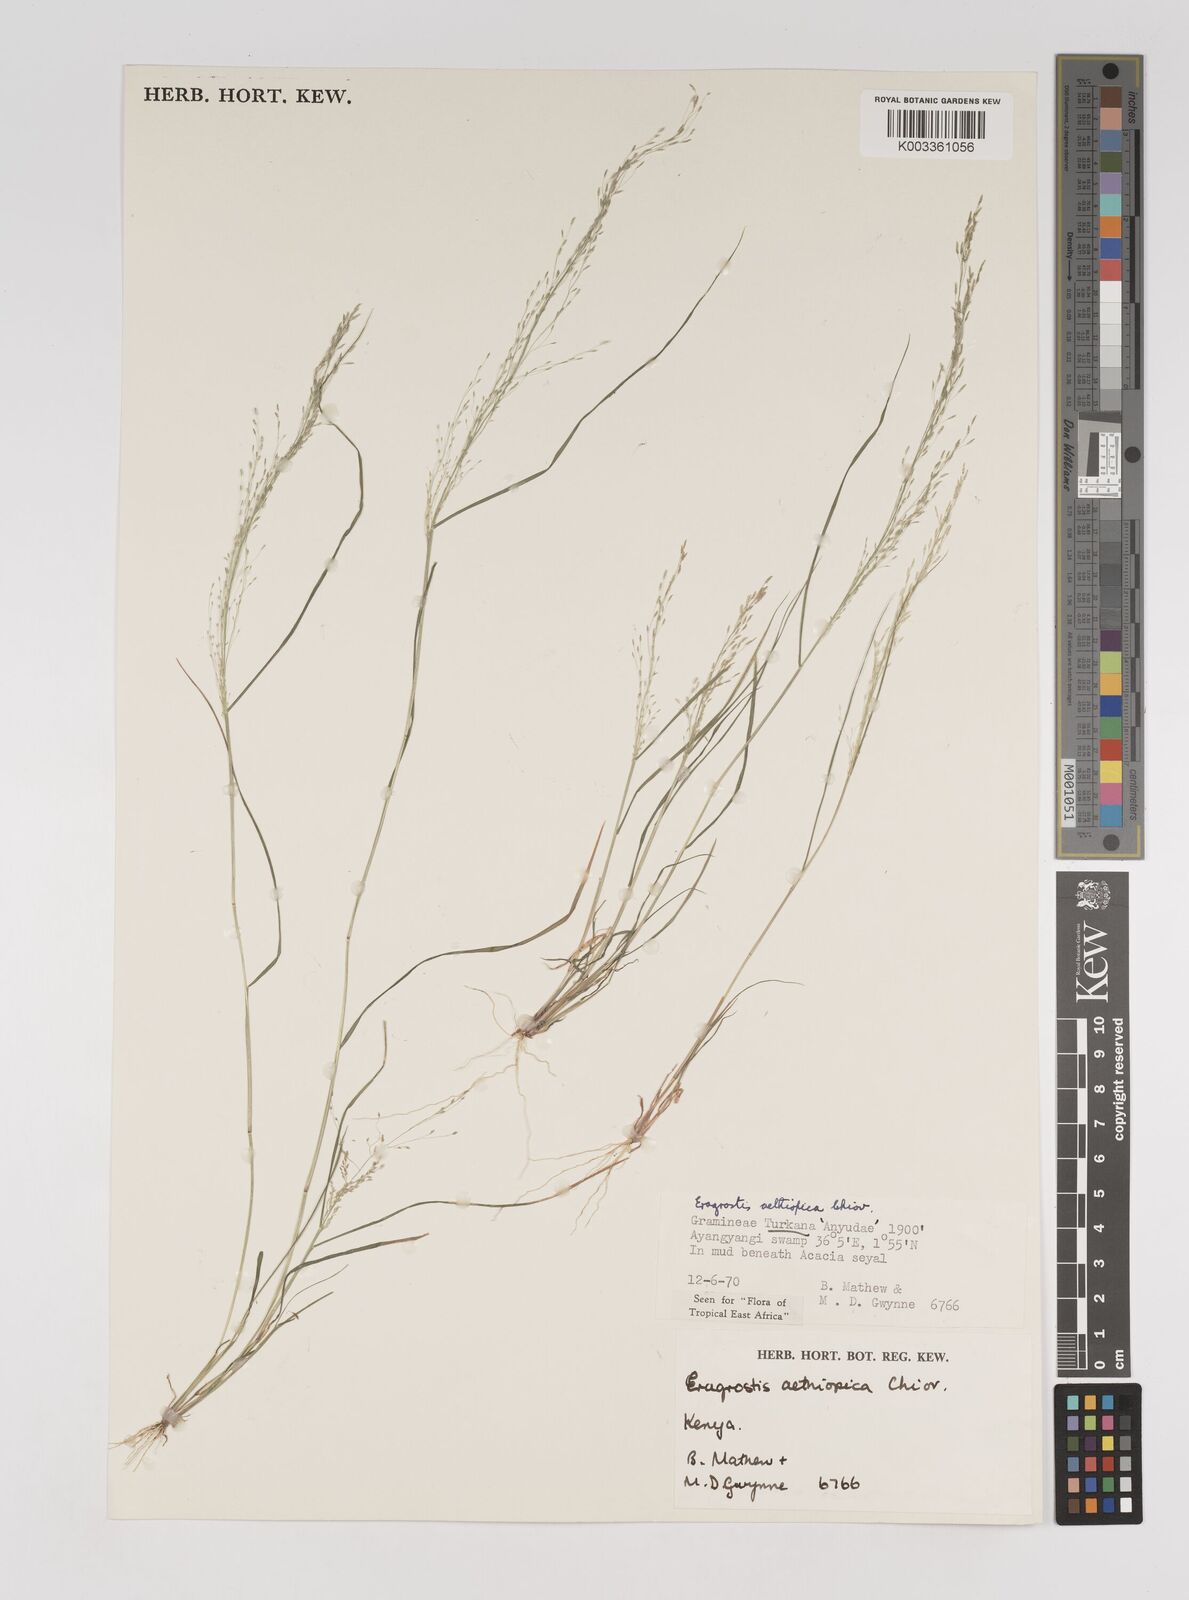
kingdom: Plantae
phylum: Tracheophyta
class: Liliopsida
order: Poales
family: Poaceae
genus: Eragrostis
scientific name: Eragrostis aethiopica
